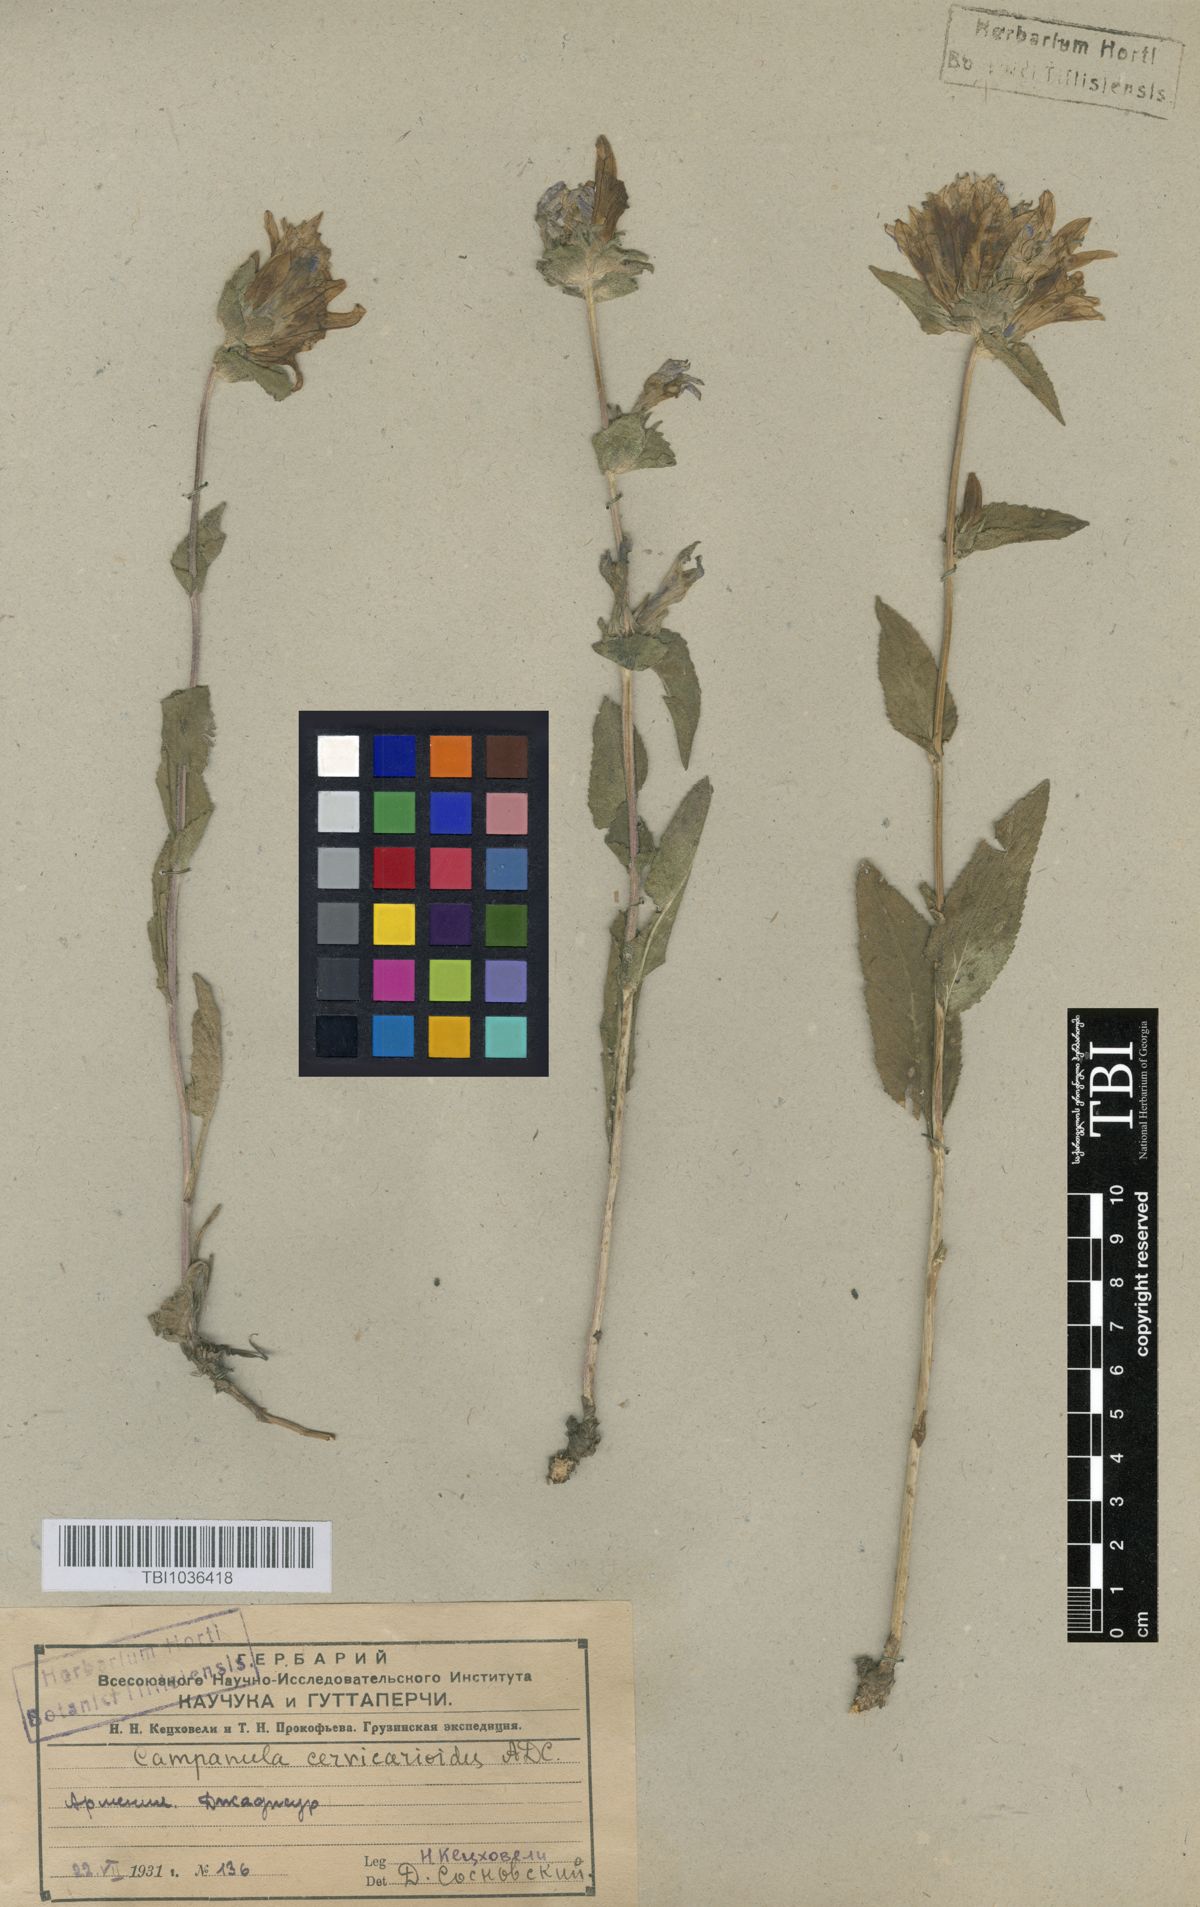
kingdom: Plantae
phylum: Tracheophyta
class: Magnoliopsida
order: Asterales
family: Campanulaceae
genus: Campanula
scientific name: Campanula glomerata
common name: Clustered bellflower
